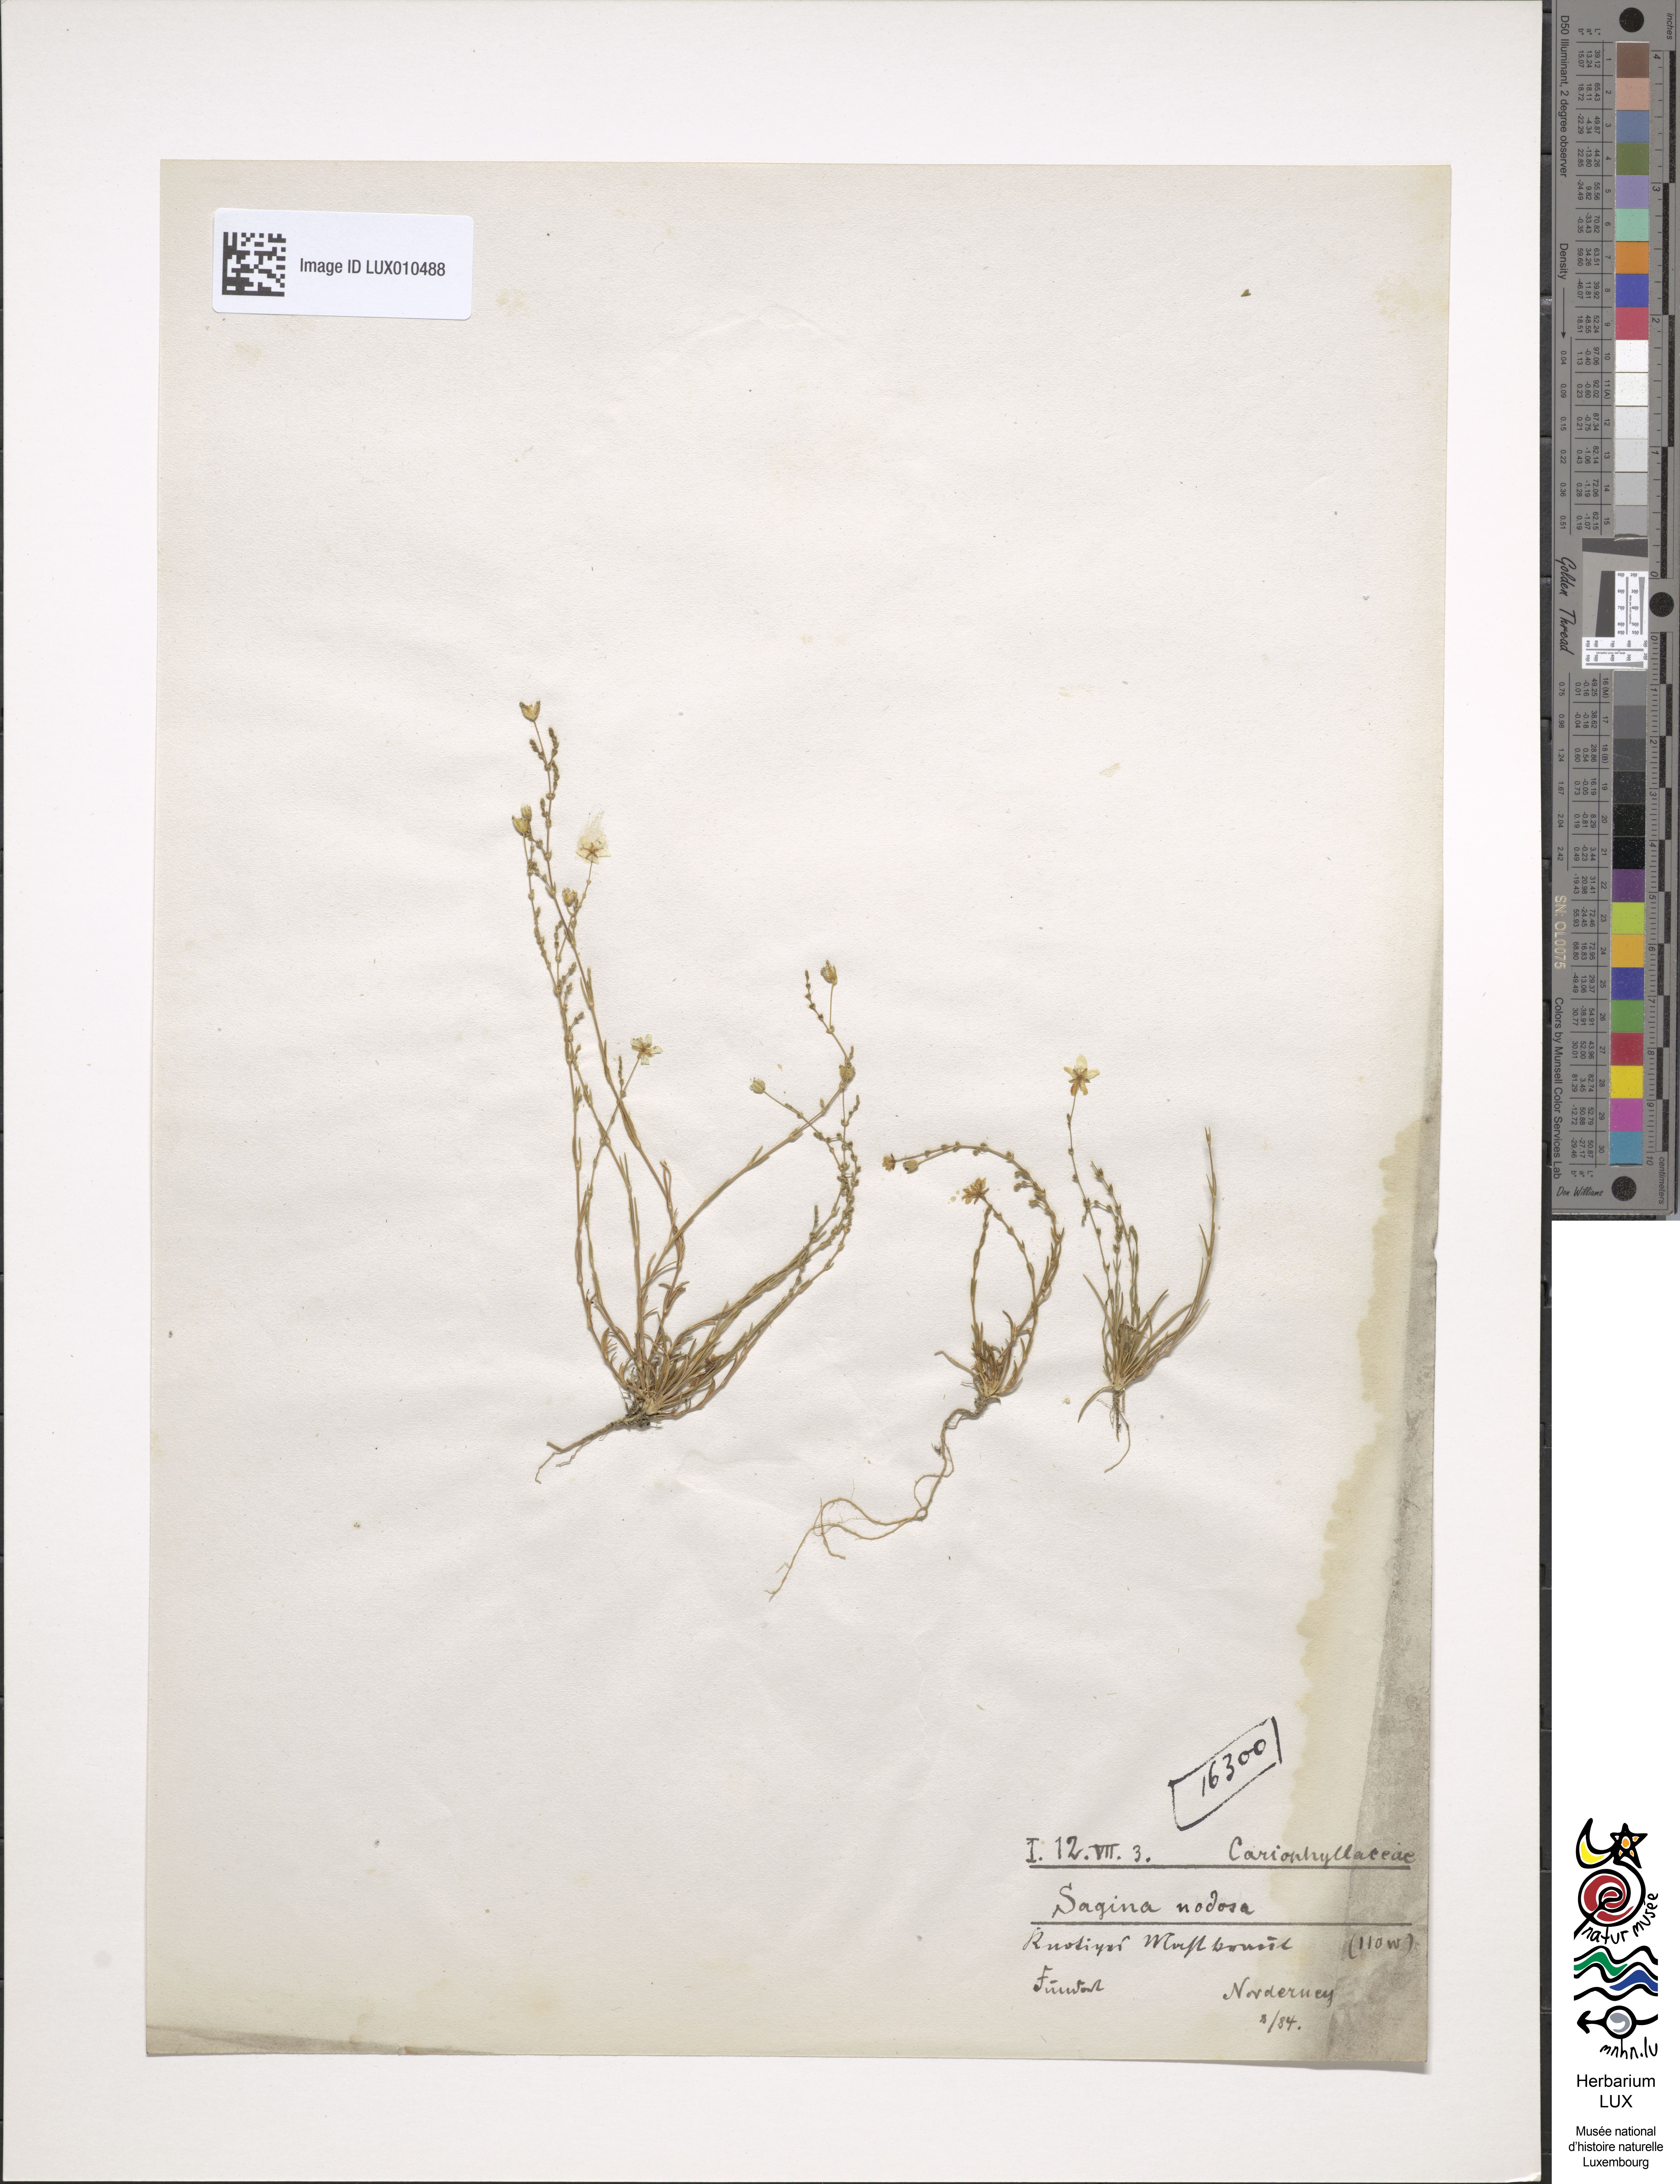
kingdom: Plantae
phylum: Tracheophyta
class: Magnoliopsida
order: Caryophyllales
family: Caryophyllaceae
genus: Sagina
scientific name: Sagina nodosa
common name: Knotted pearlwort
